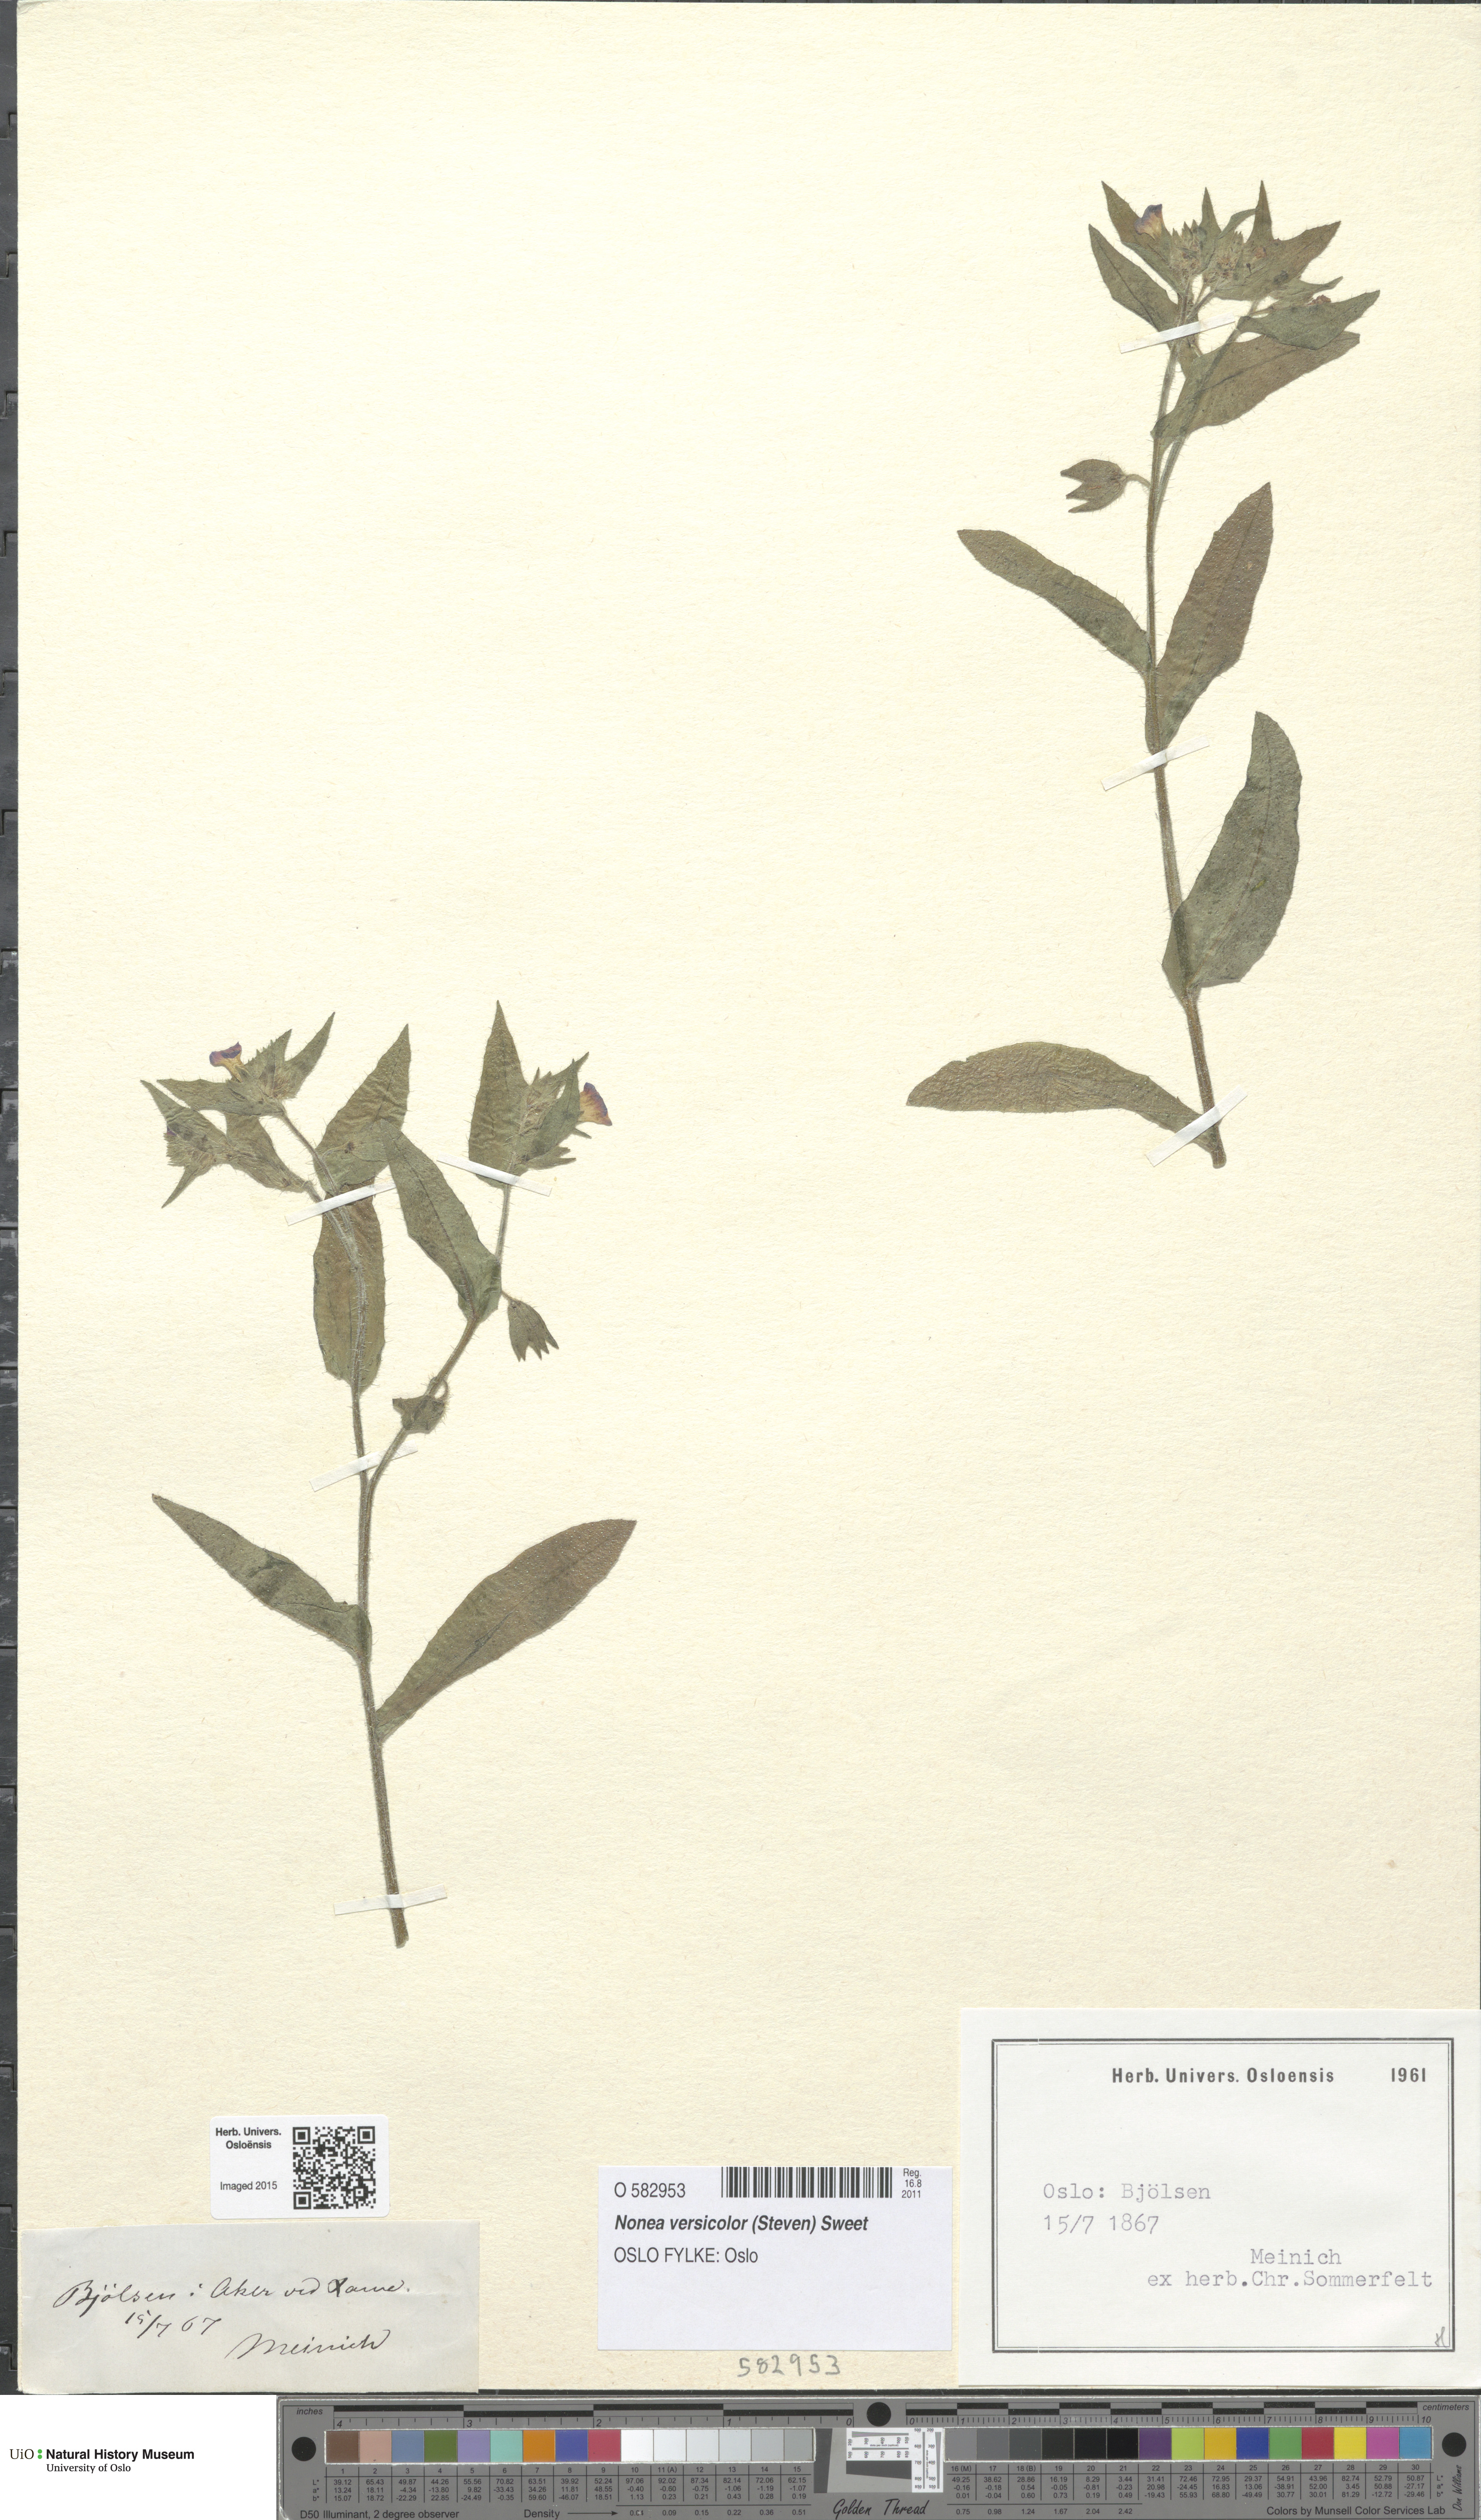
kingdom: Plantae
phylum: Tracheophyta
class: Magnoliopsida
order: Boraginales
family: Boraginaceae
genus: Nonea
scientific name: Nonea versicolor
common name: Varied monkswort
